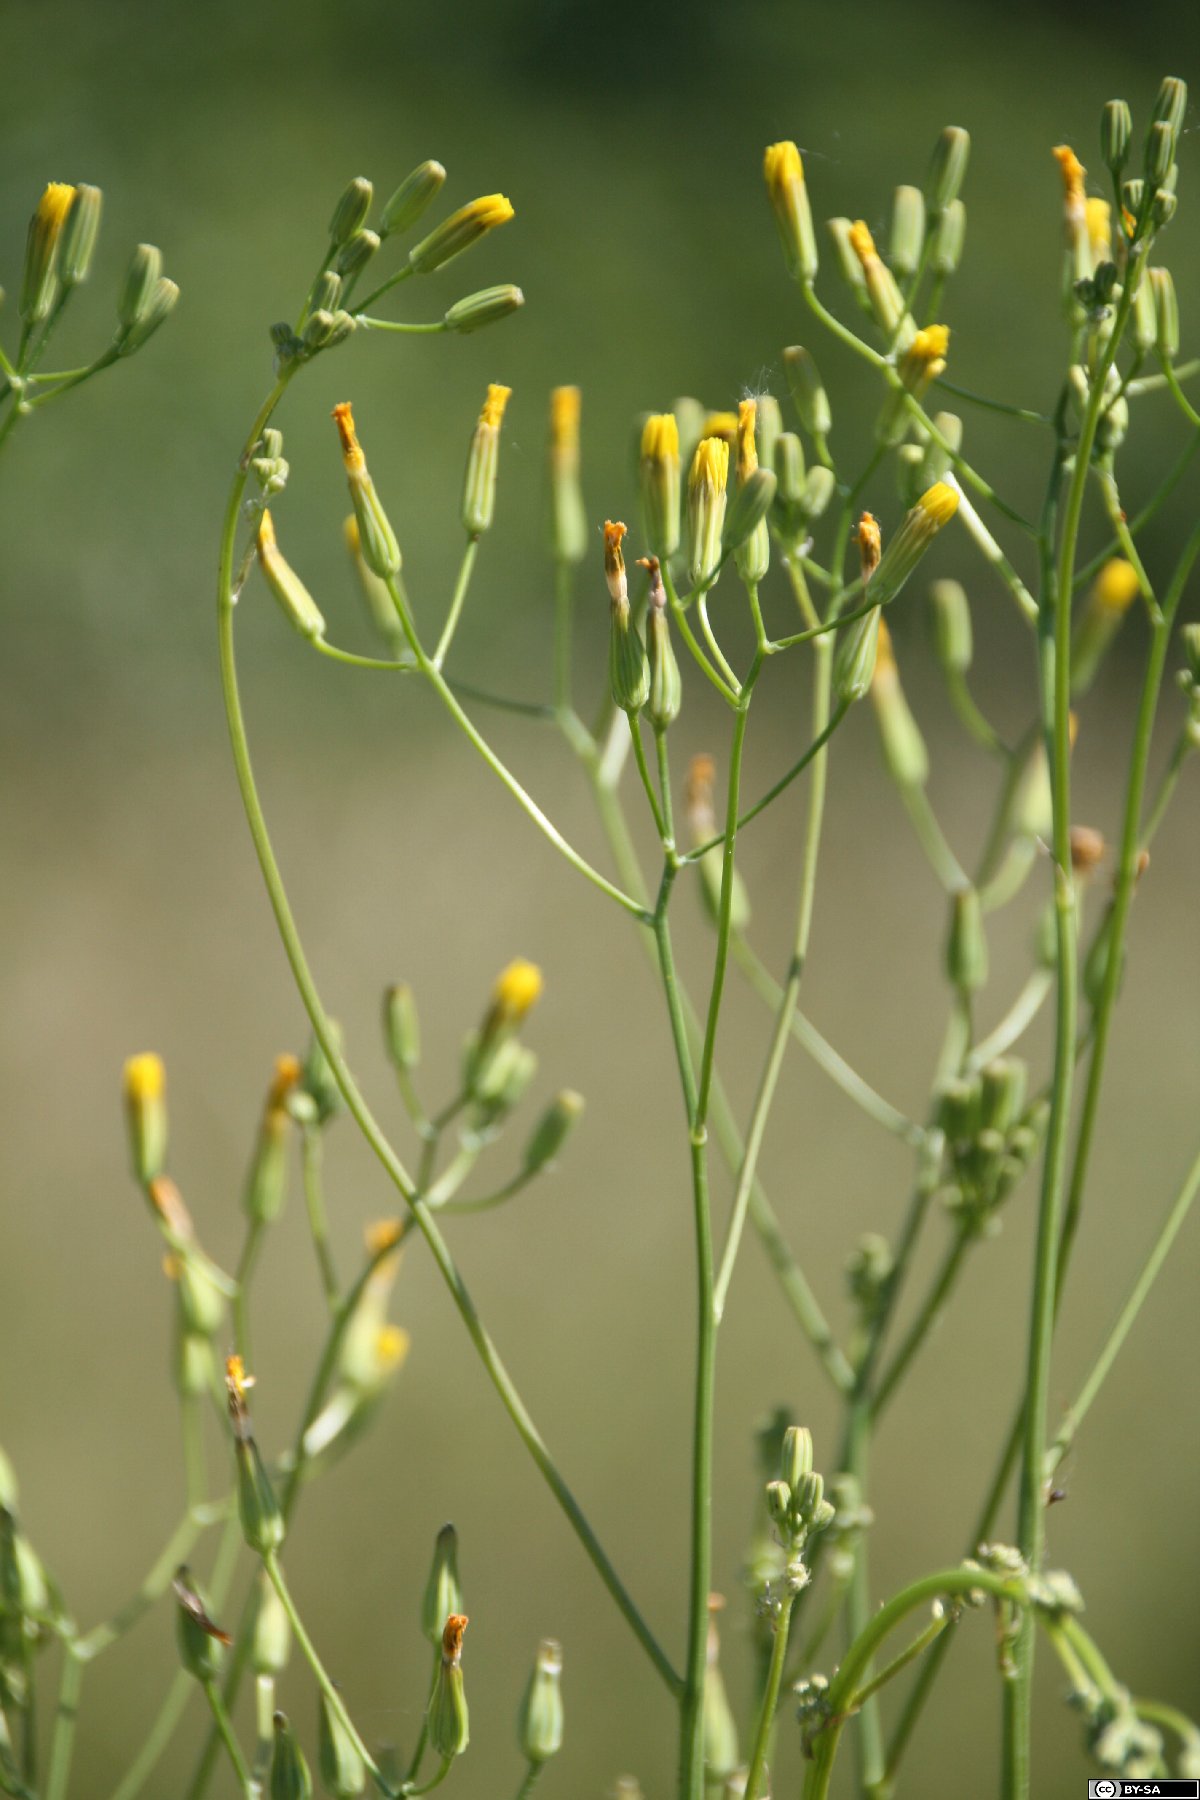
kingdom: Plantae
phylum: Tracheophyta
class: Magnoliopsida
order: Asterales
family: Asteraceae
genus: Crepis
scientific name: Crepis pulchra
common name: Hawk's-beard
